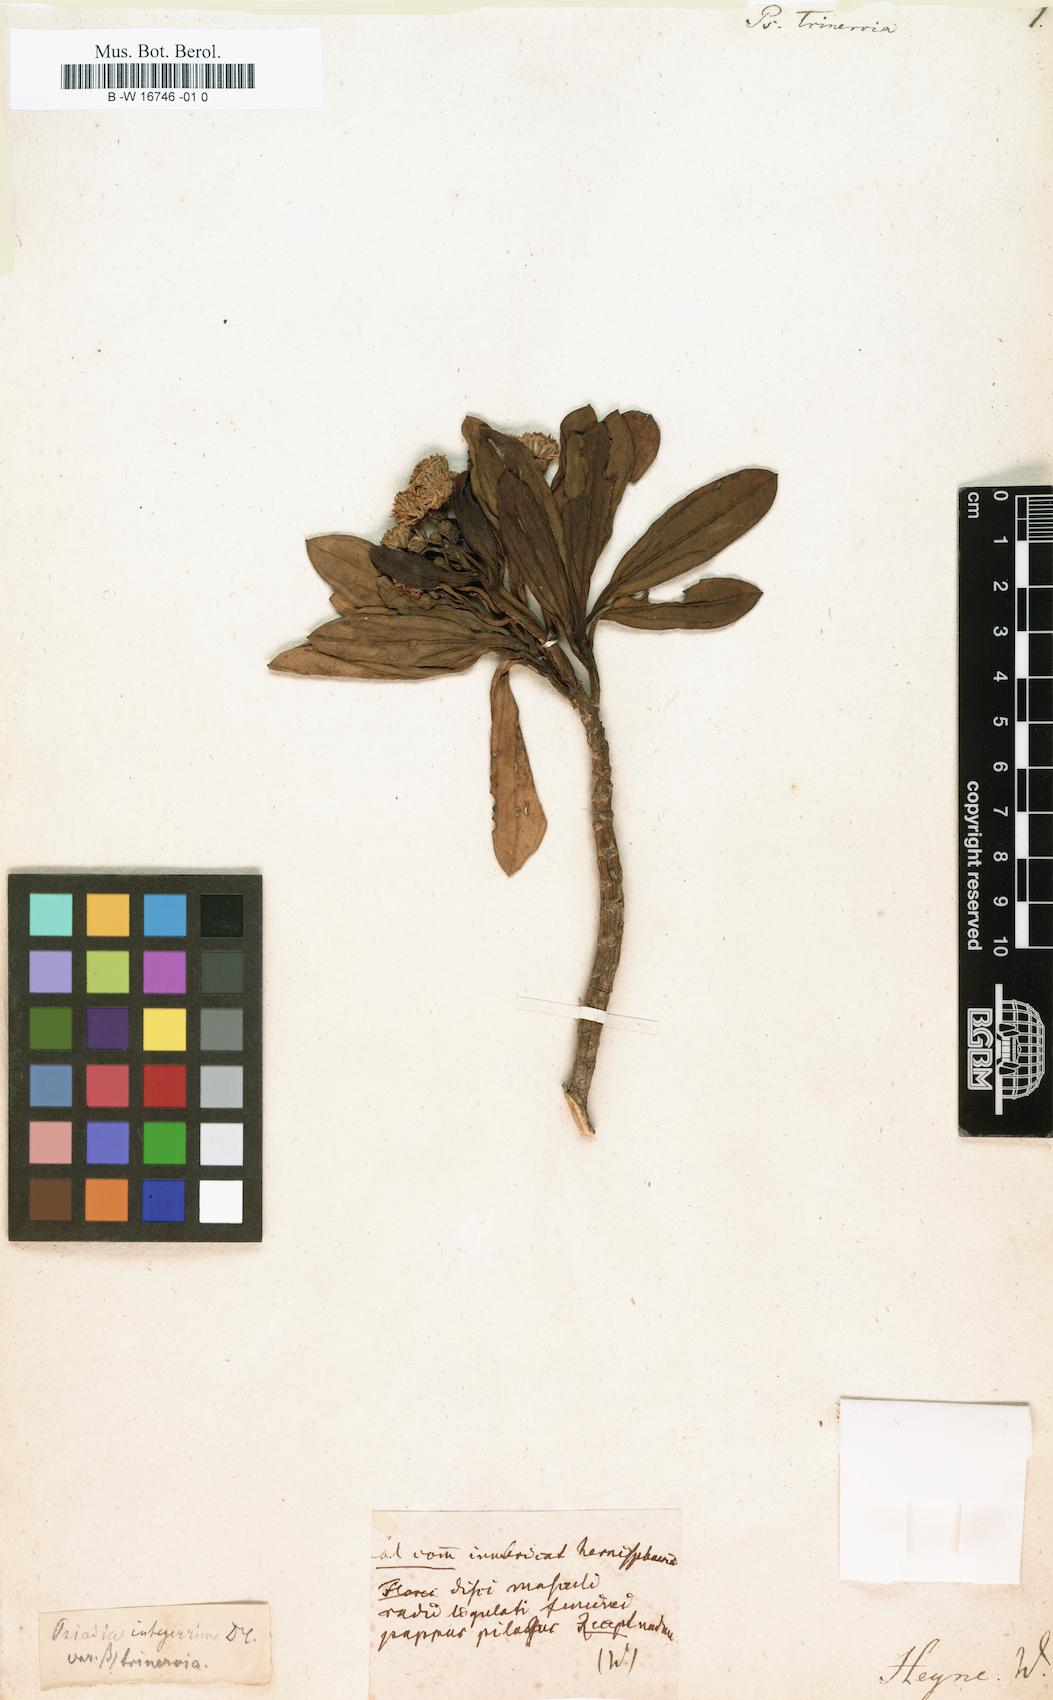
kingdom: Plantae
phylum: Tracheophyta
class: Magnoliopsida
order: Asterales
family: Asteraceae
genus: Psiadia
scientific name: Psiadia viscosa
